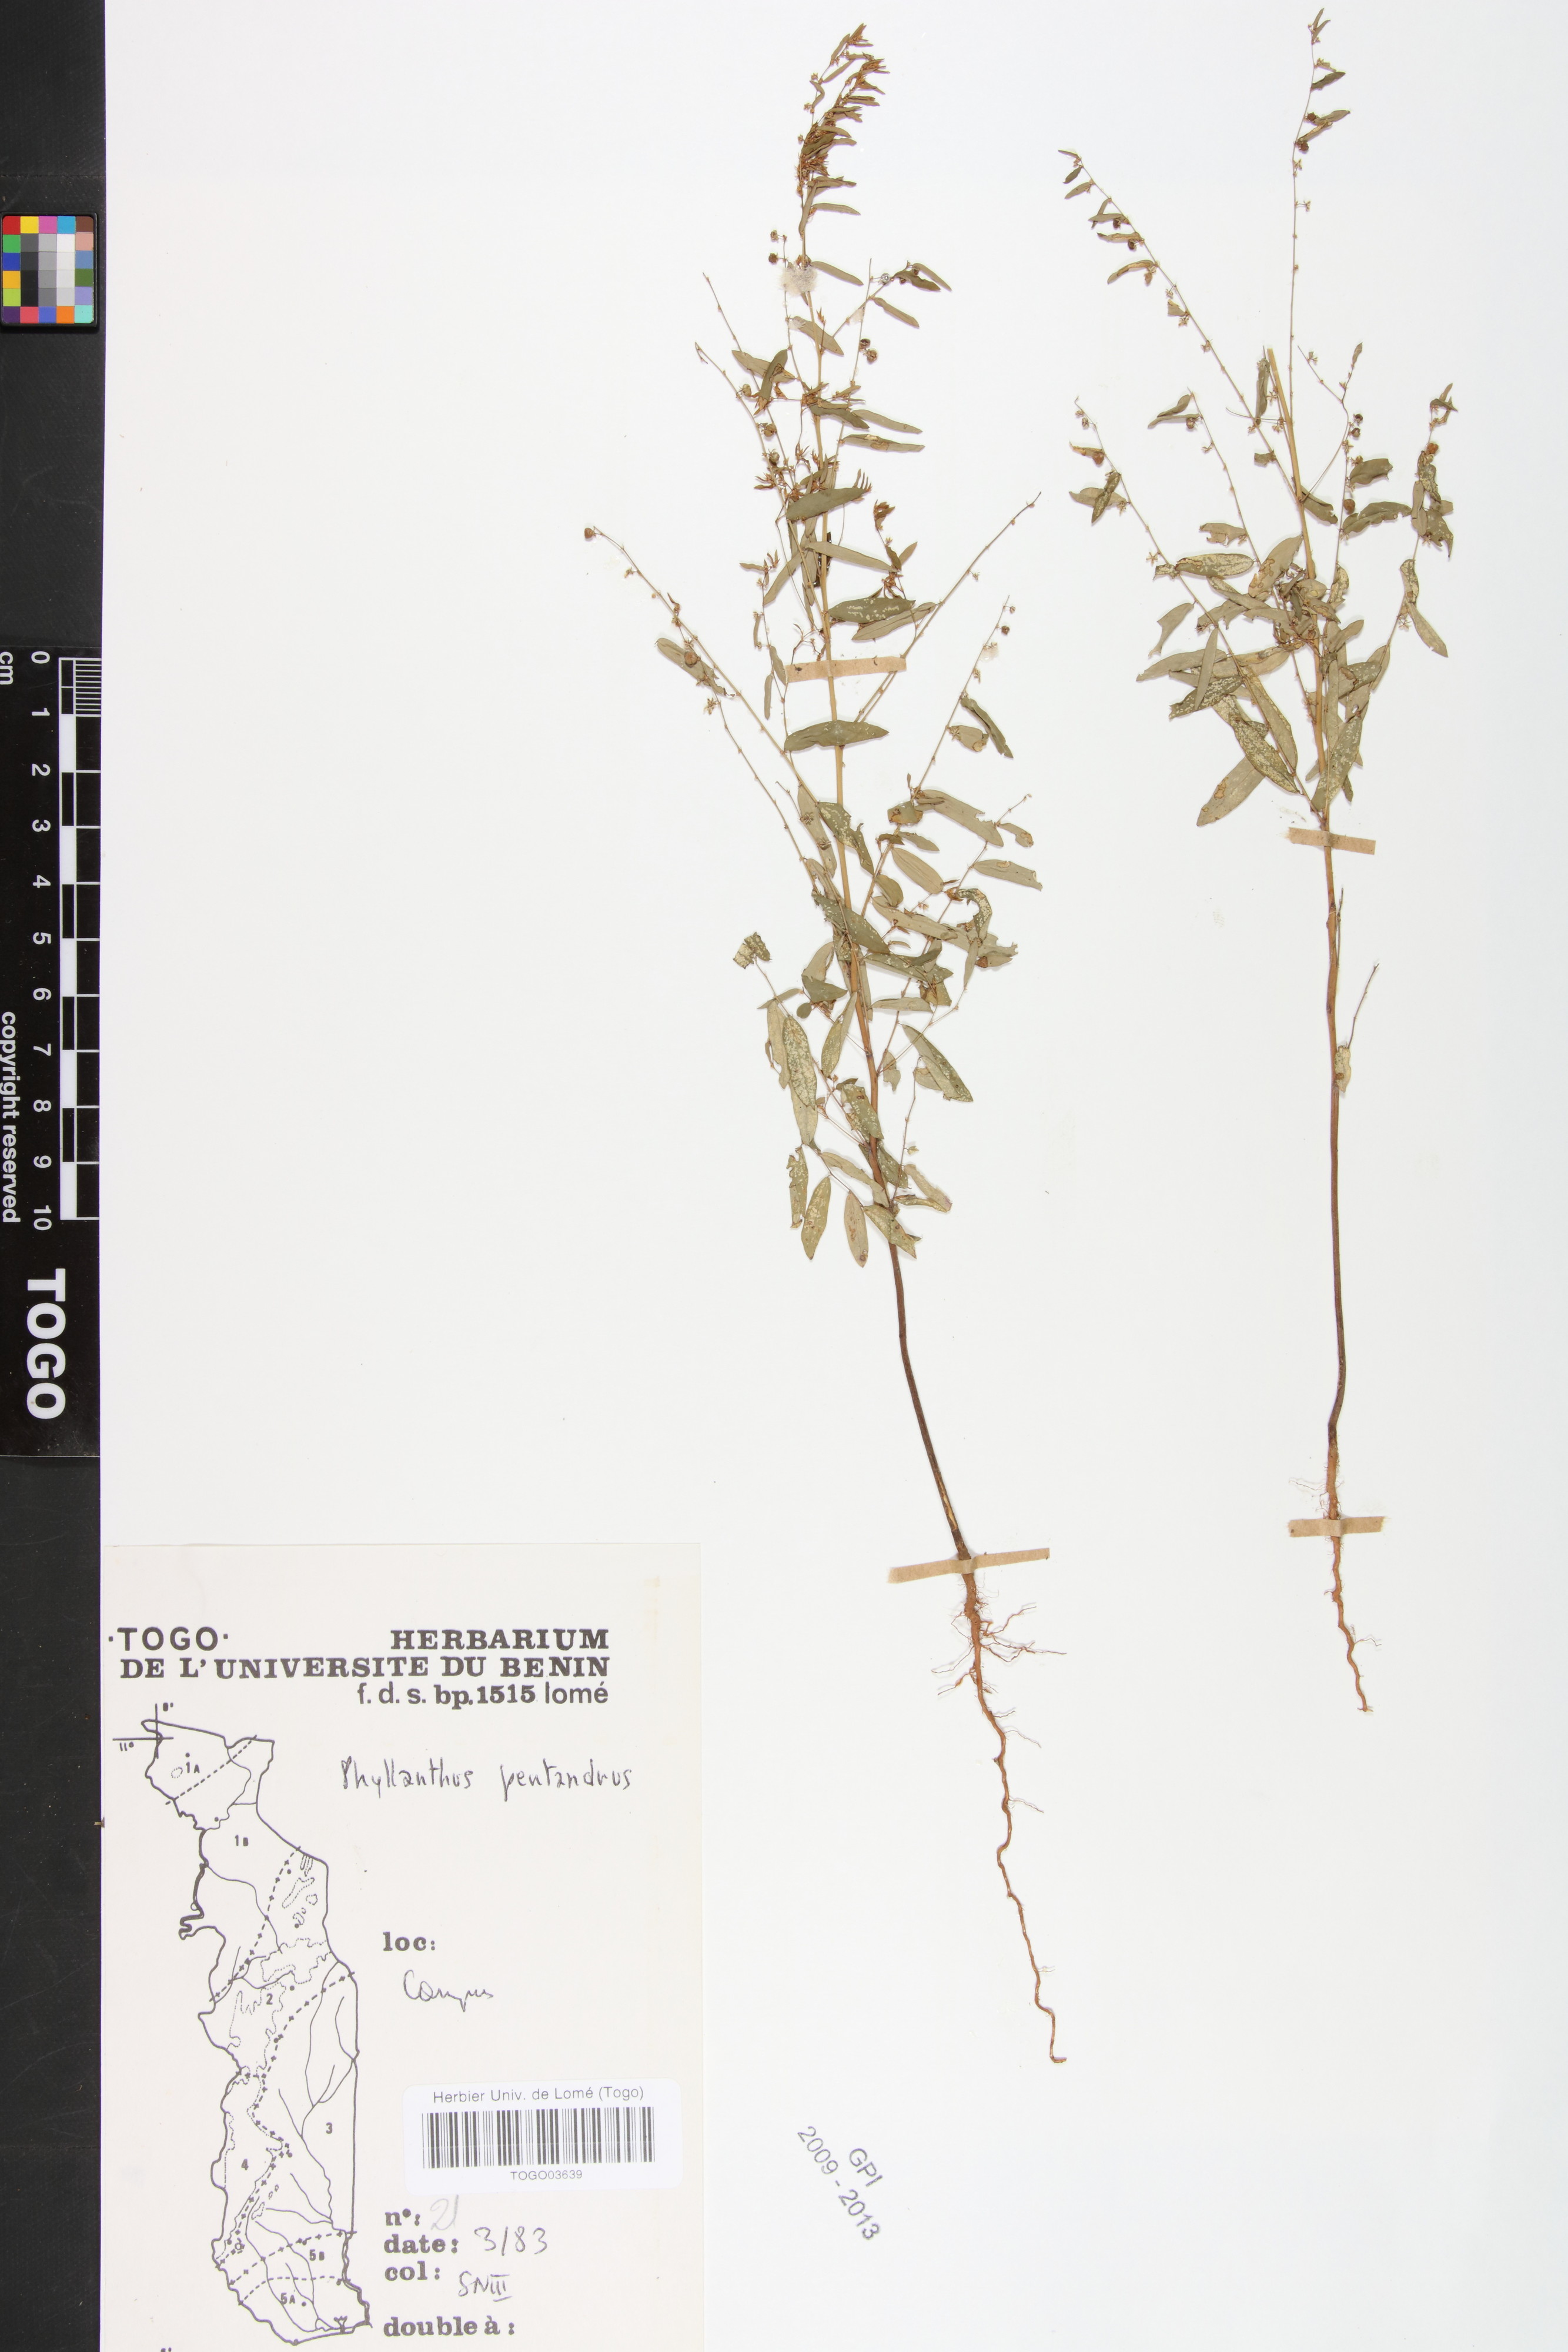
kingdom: Plantae
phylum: Tracheophyta
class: Magnoliopsida
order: Malpighiales
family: Phyllanthaceae
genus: Phyllanthus
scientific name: Phyllanthus pentandrus
